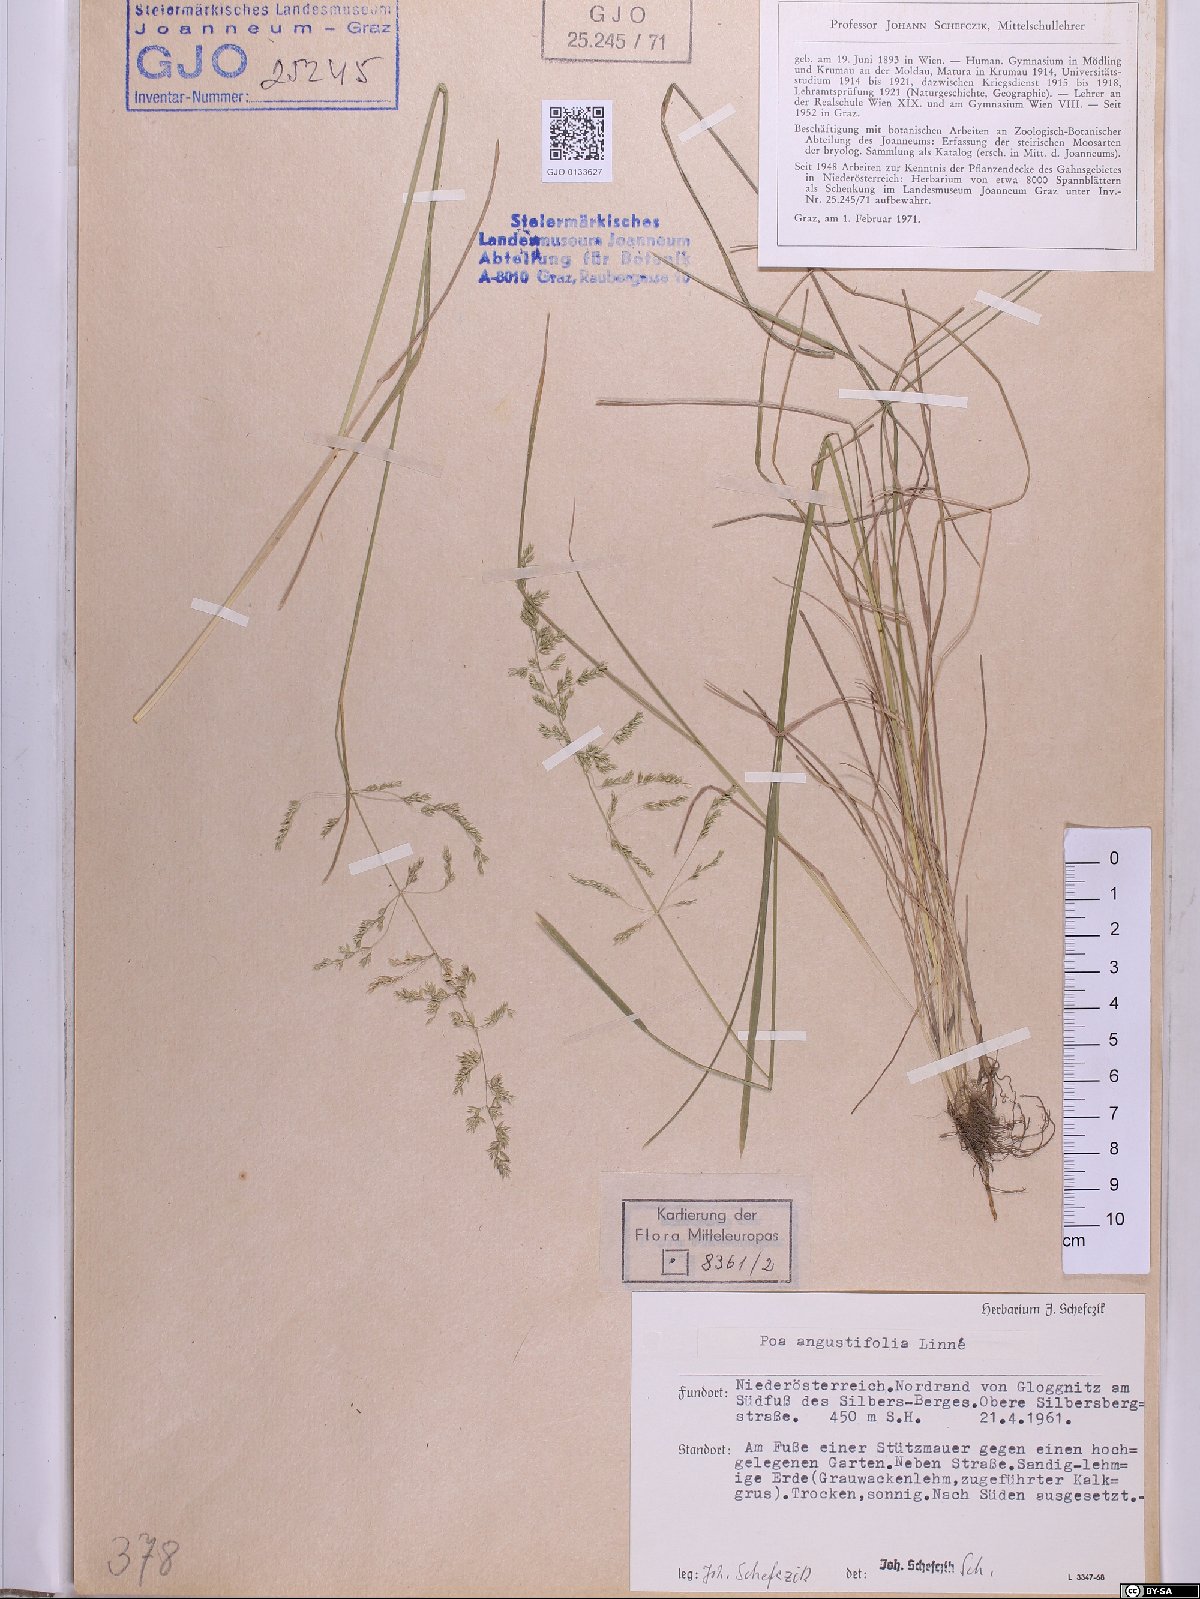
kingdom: Plantae
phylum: Tracheophyta
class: Liliopsida
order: Poales
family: Poaceae
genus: Poa
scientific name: Poa angustifolia
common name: Narrow-leaved meadow-grass
